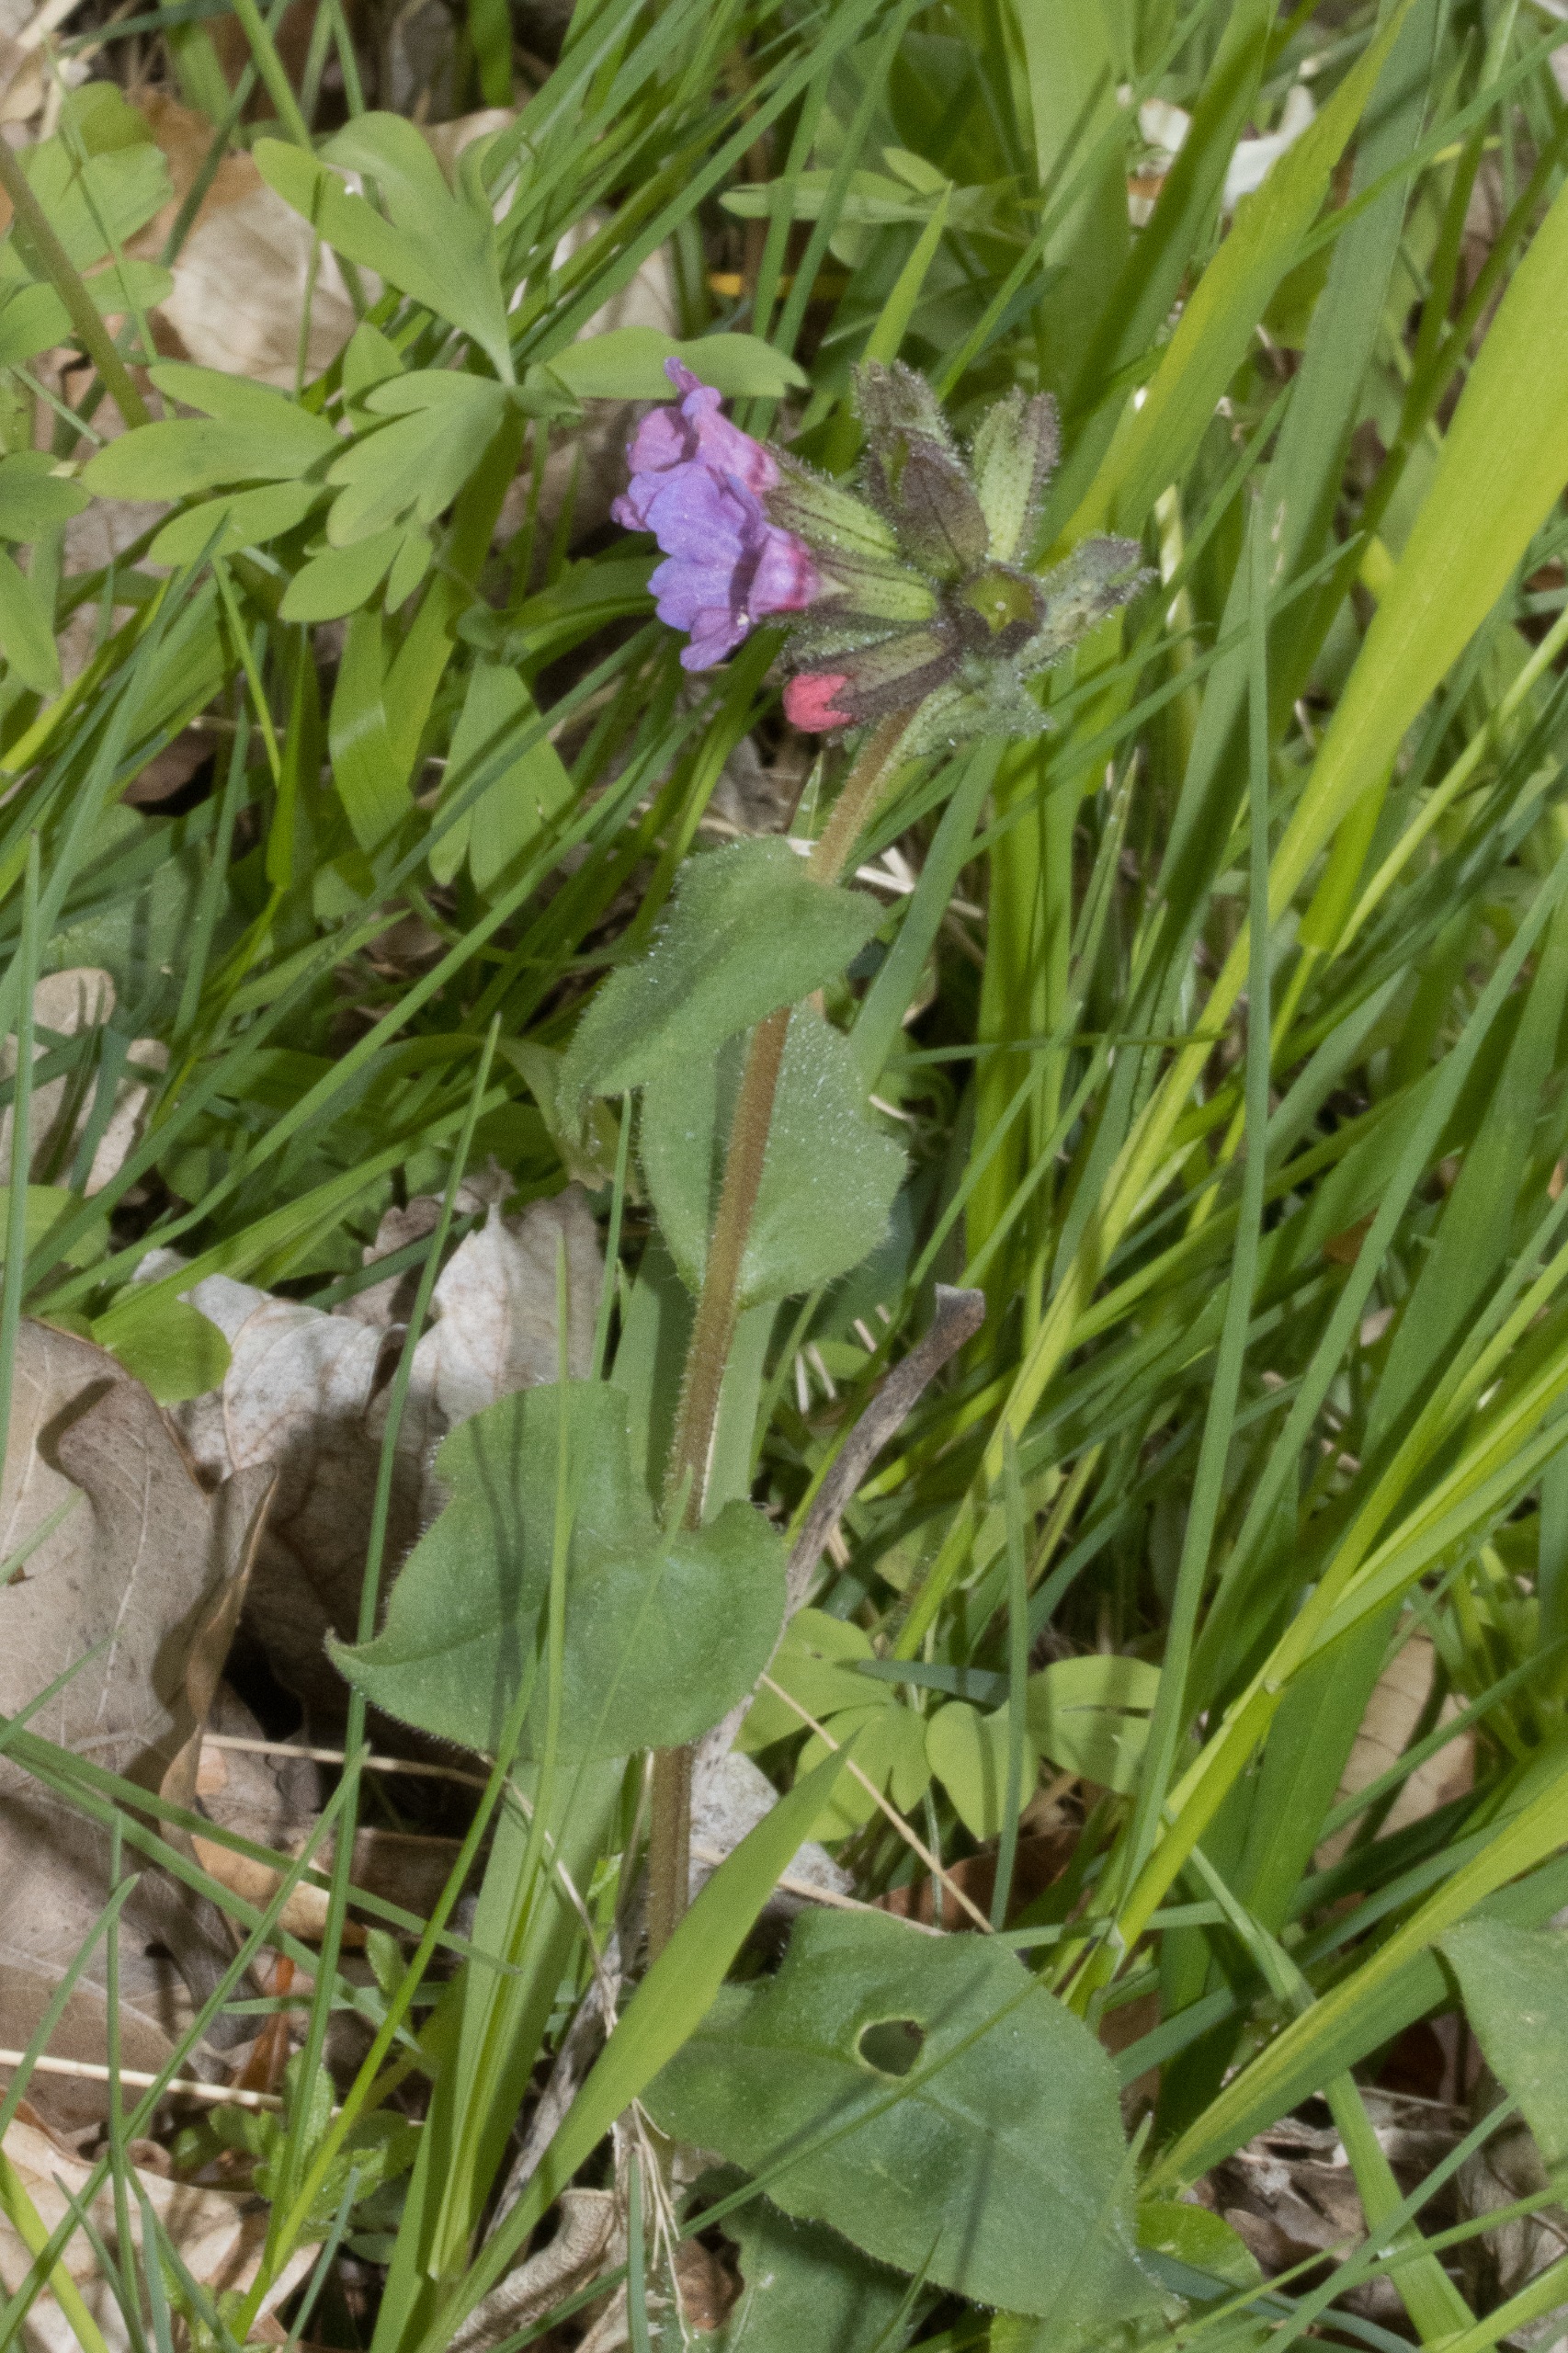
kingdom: Plantae
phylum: Tracheophyta
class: Magnoliopsida
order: Boraginales
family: Boraginaceae
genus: Pulmonaria
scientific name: Pulmonaria obscura
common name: Almindelig lungeurt
